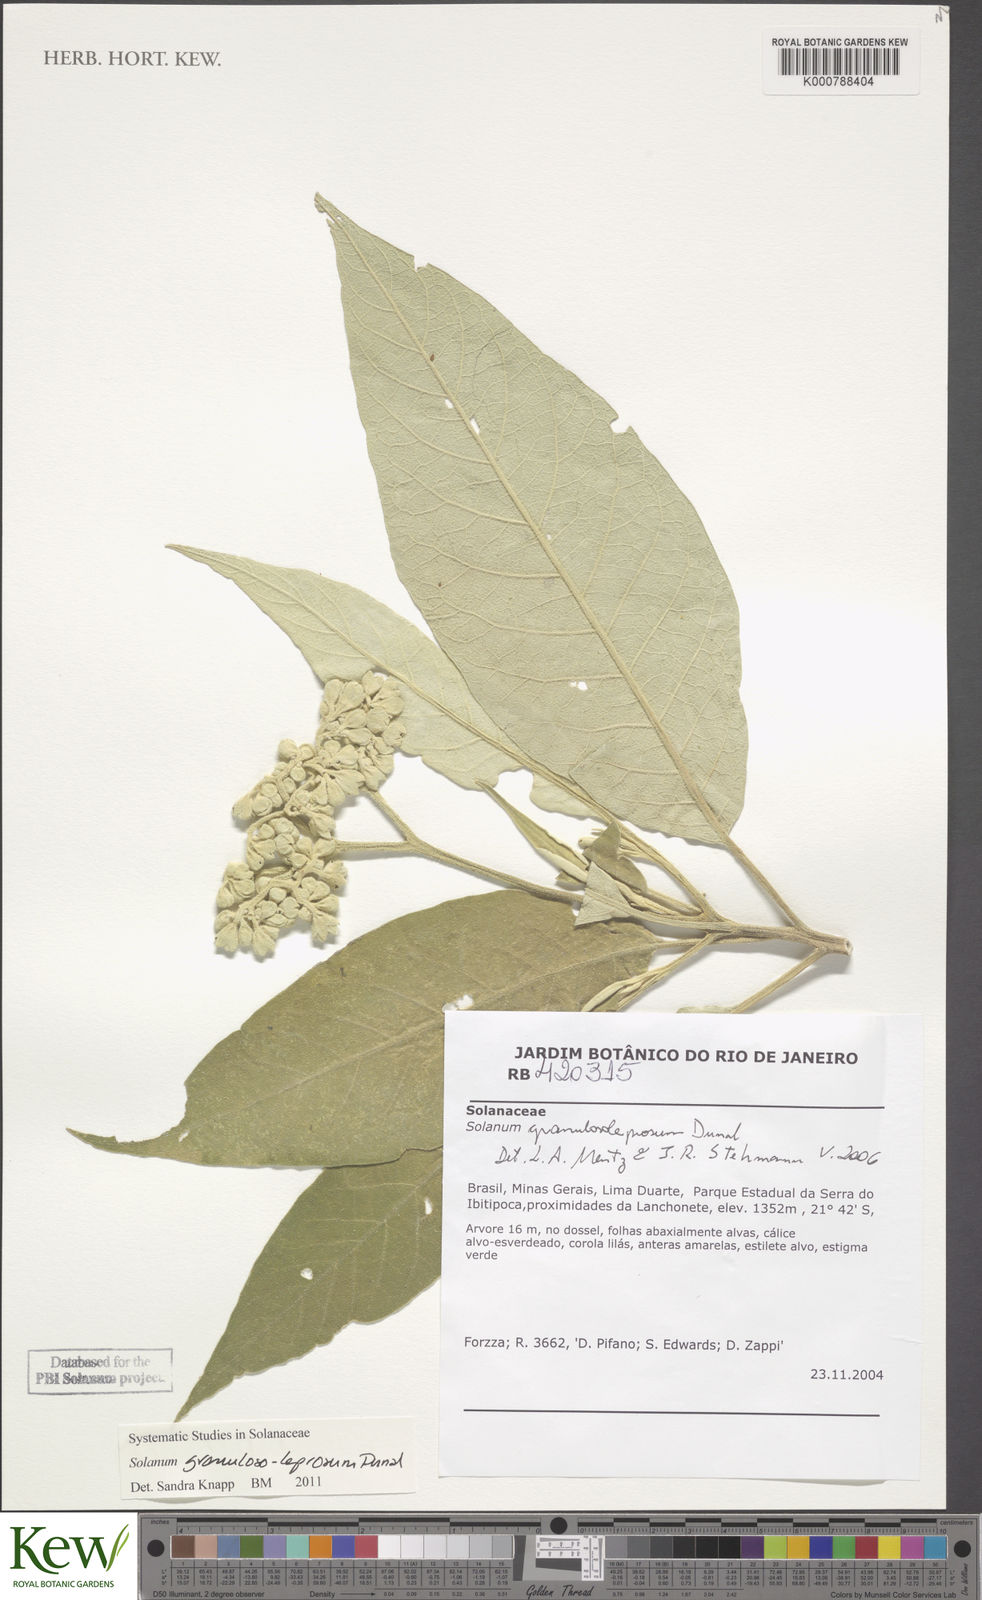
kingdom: Plantae
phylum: Tracheophyta
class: Magnoliopsida
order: Solanales
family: Solanaceae
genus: Solanum
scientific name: Solanum granulosoleprosum
